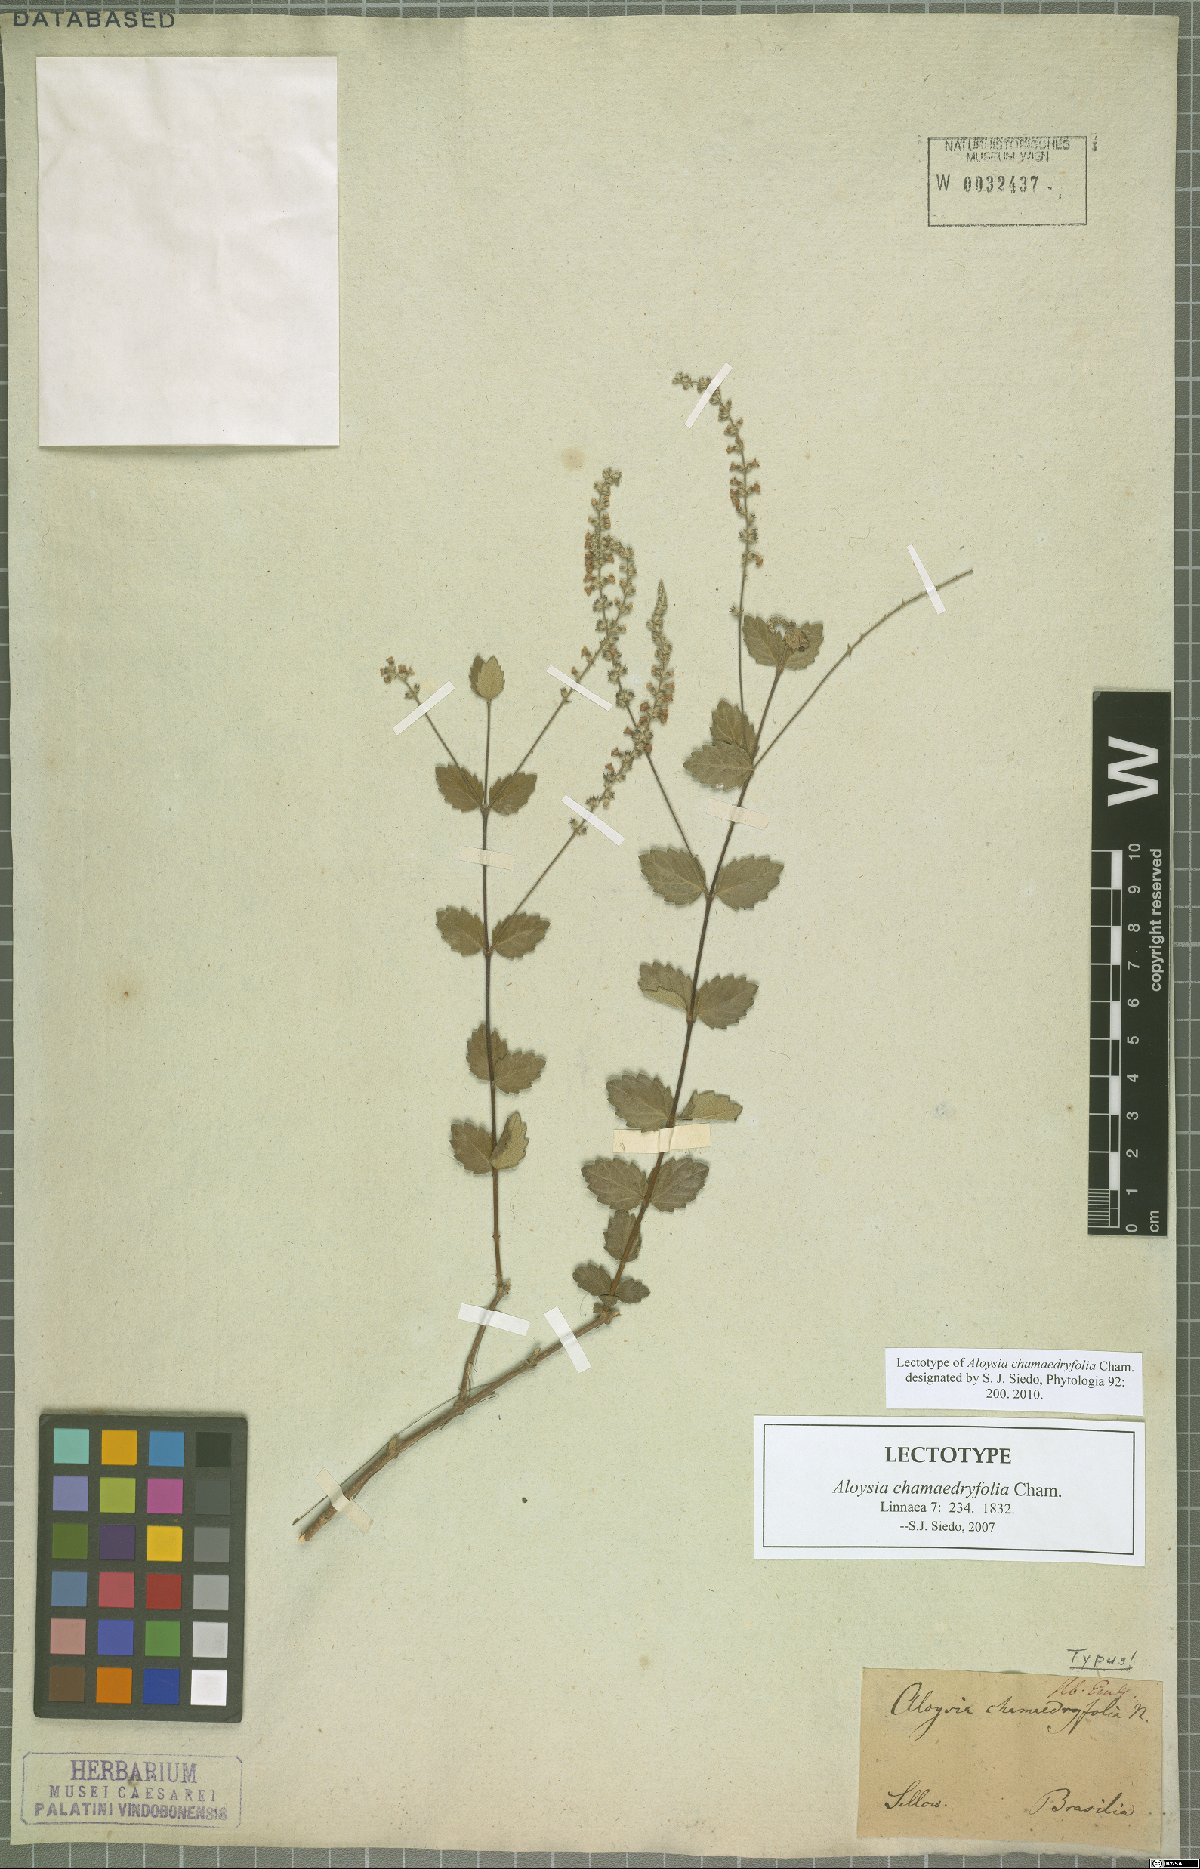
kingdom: Plantae
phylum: Tracheophyta
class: Magnoliopsida
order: Lamiales
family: Verbenaceae
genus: Aloysia
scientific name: Aloysia chamaedryfolia
